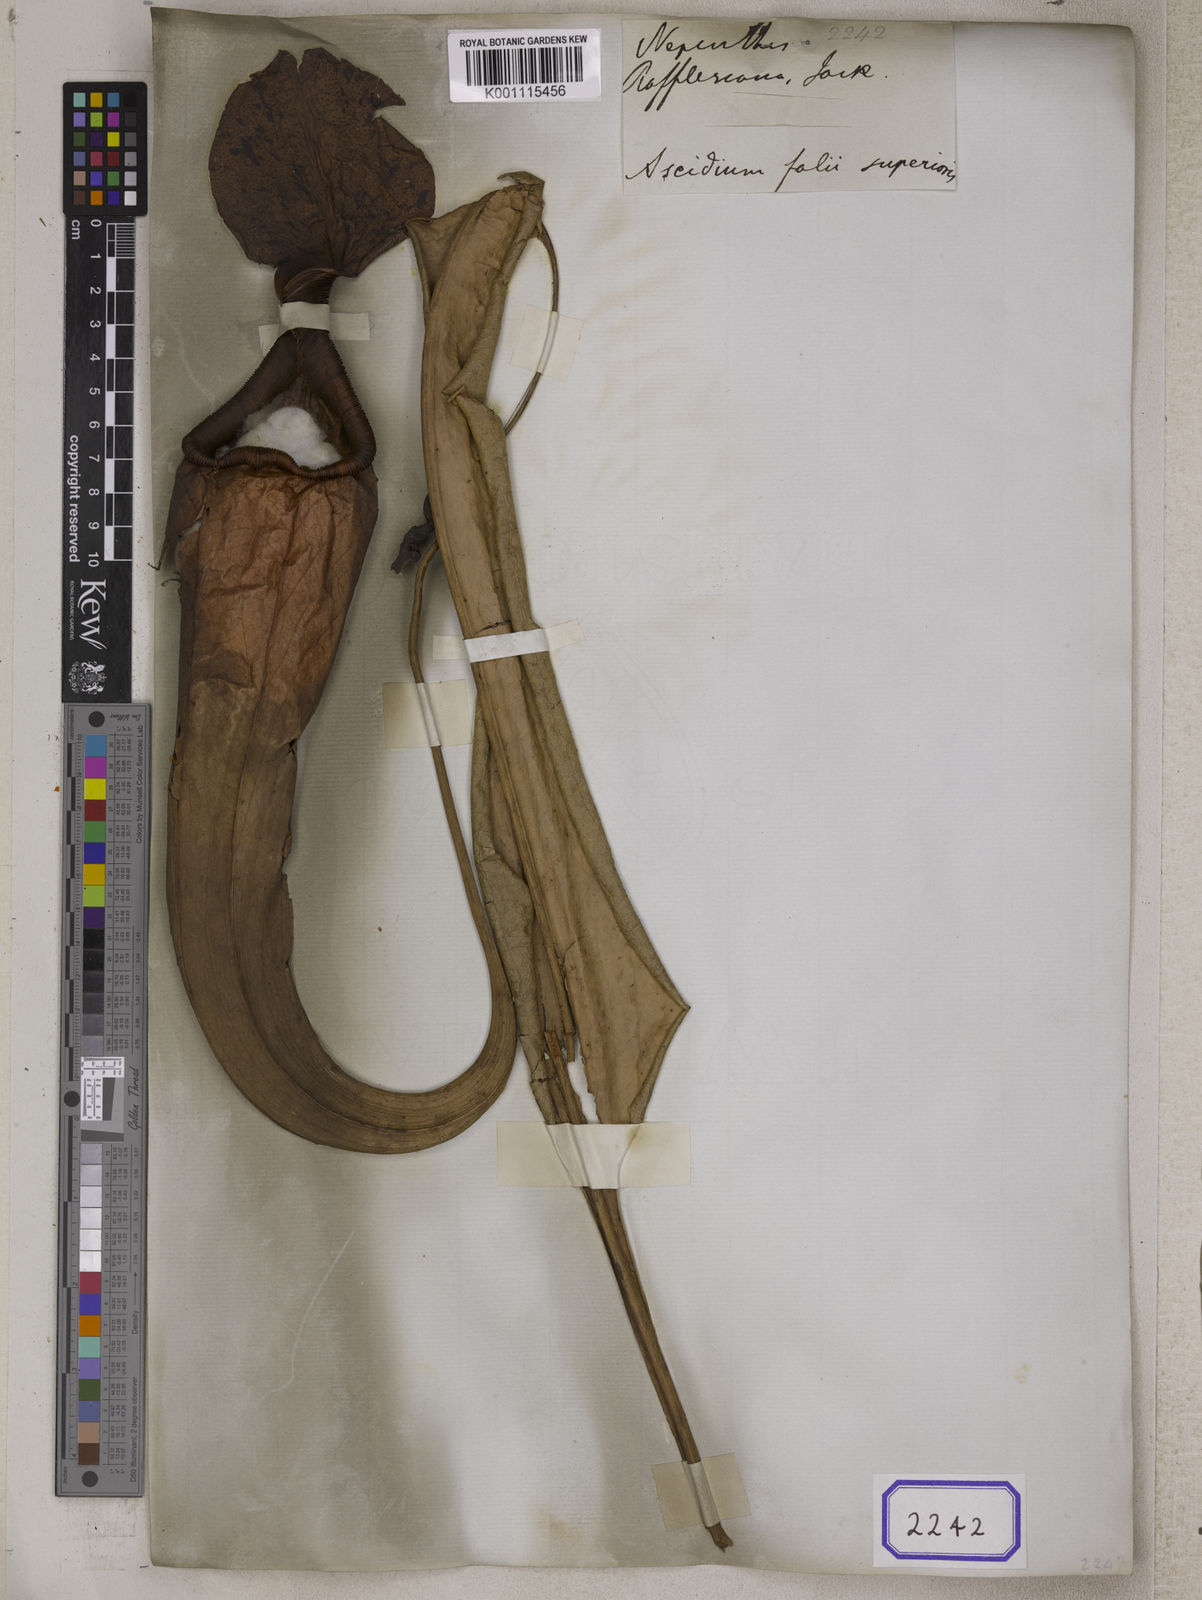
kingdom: Plantae
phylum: Tracheophyta
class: Magnoliopsida
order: Caryophyllales
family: Nepenthaceae
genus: Nepenthes
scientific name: Nepenthes rafflesiana
